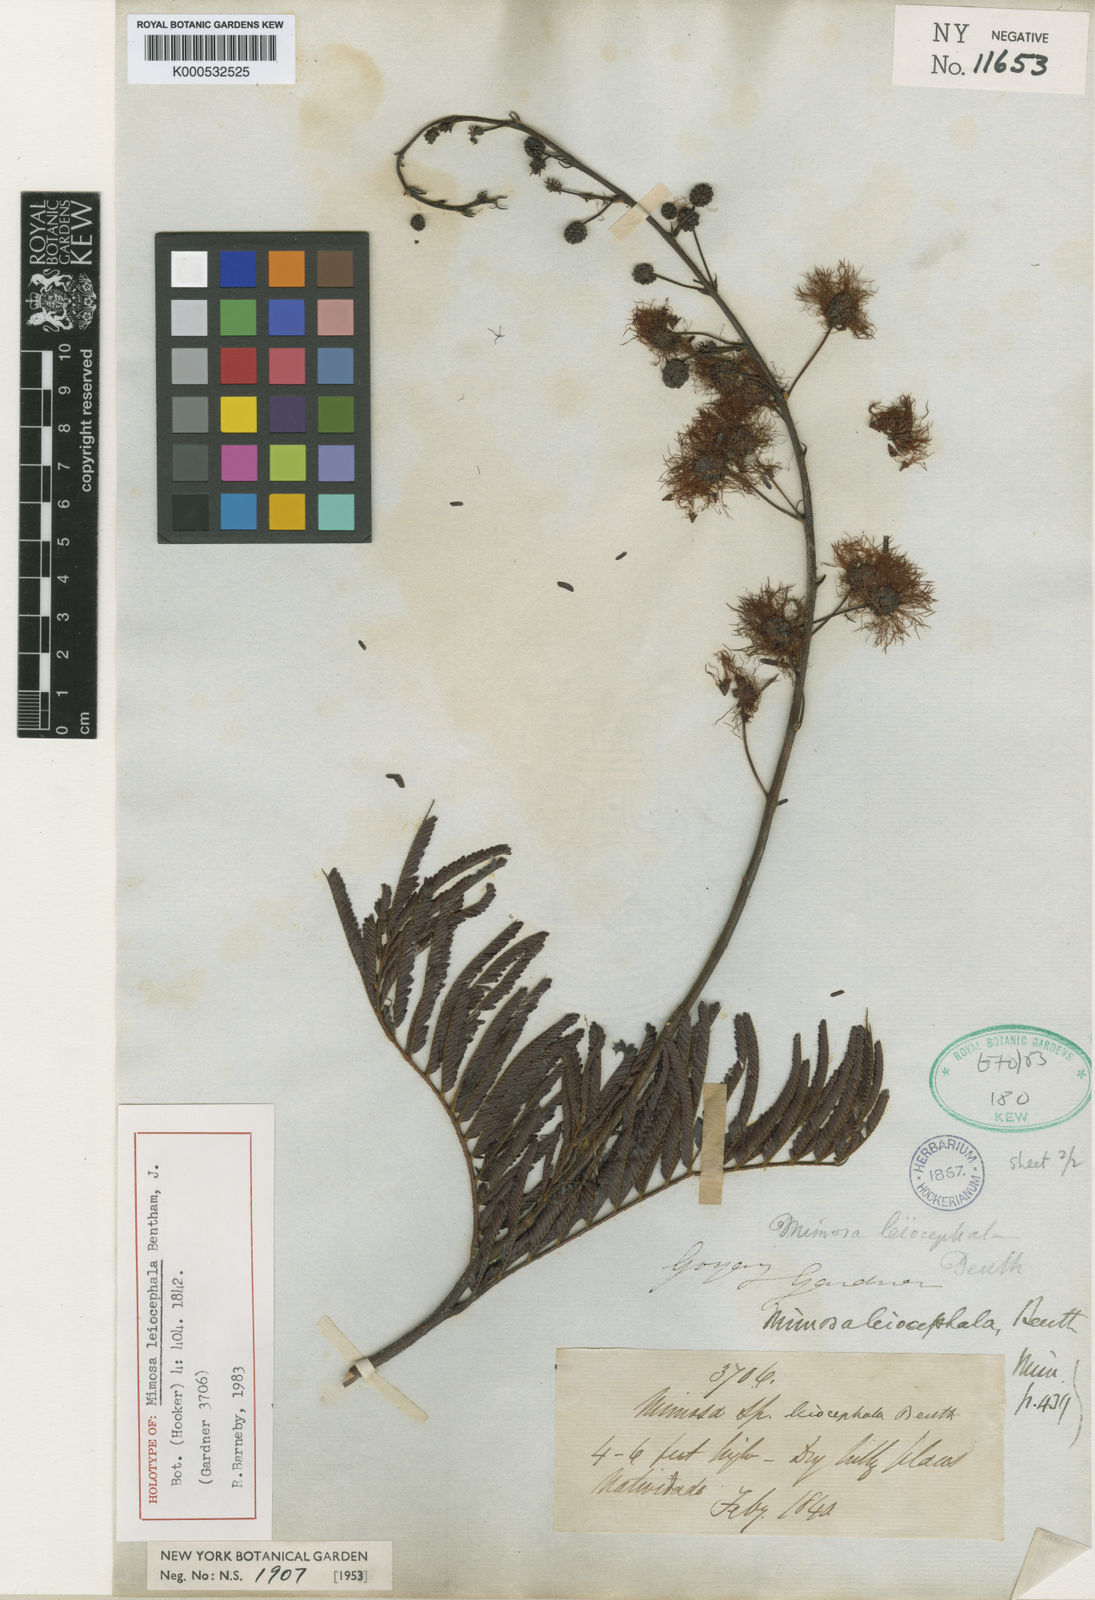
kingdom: Plantae
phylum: Tracheophyta
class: Magnoliopsida
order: Fabales
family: Fabaceae
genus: Mimosa
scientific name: Mimosa leiocephala
